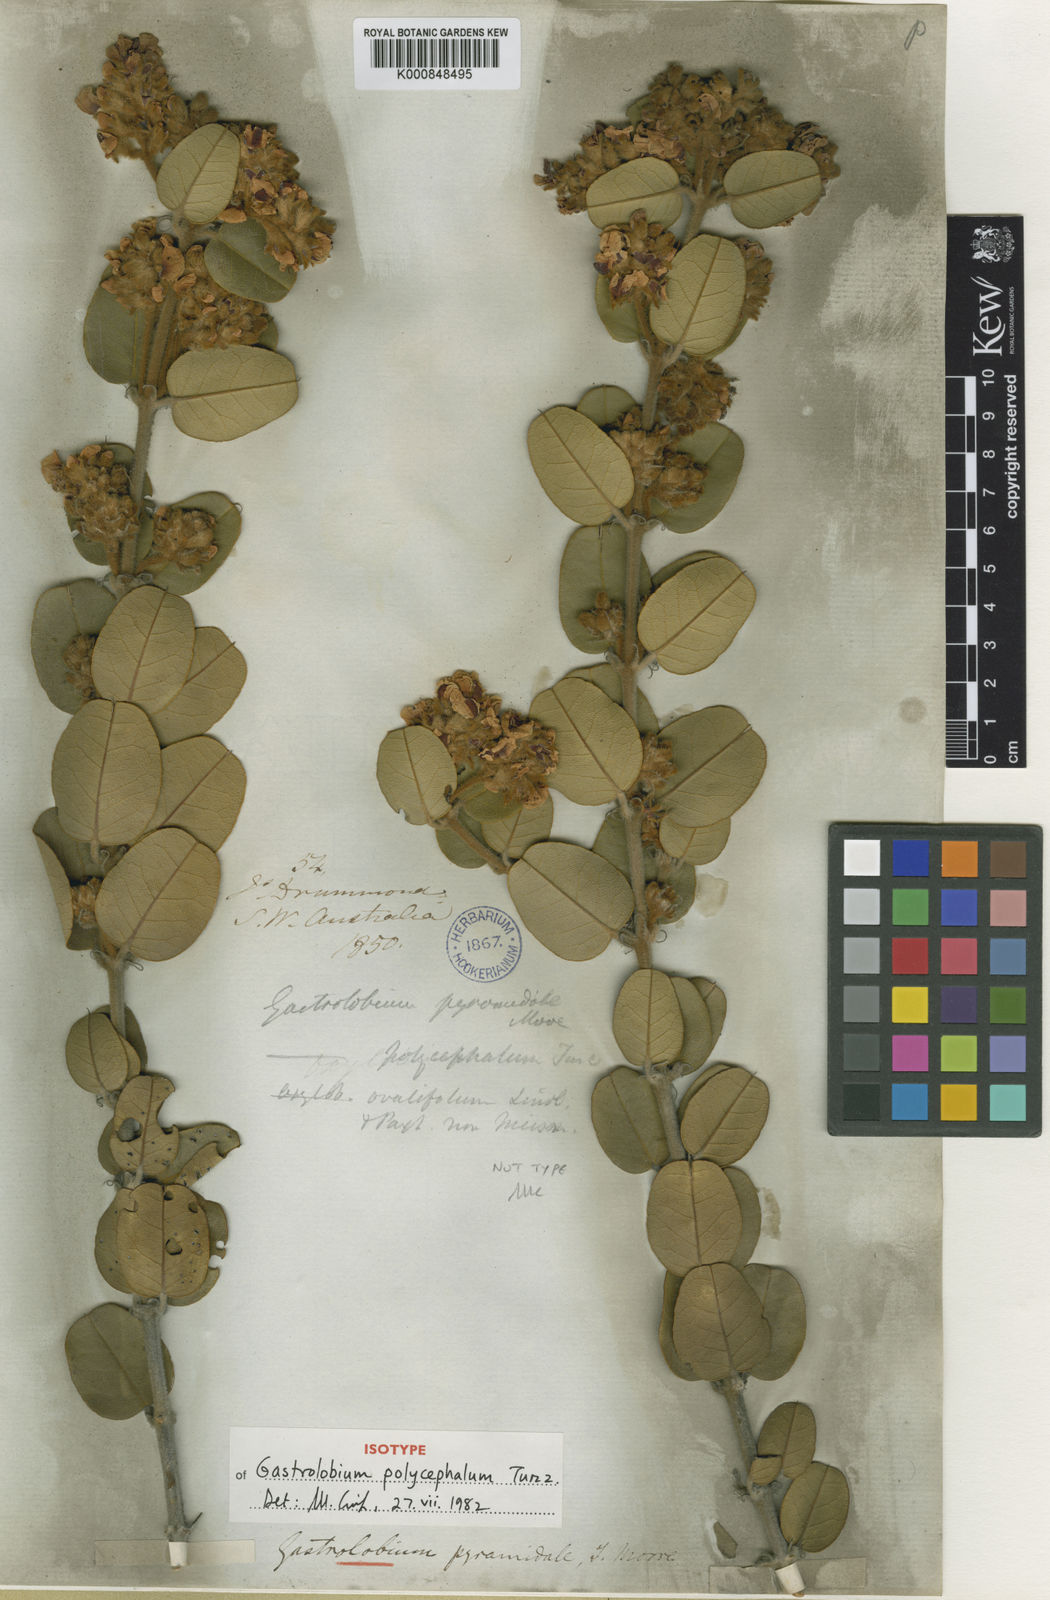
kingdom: Plantae
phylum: Tracheophyta
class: Magnoliopsida
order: Fabales
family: Fabaceae
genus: Gastrolobium
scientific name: Gastrolobium pyramidale
